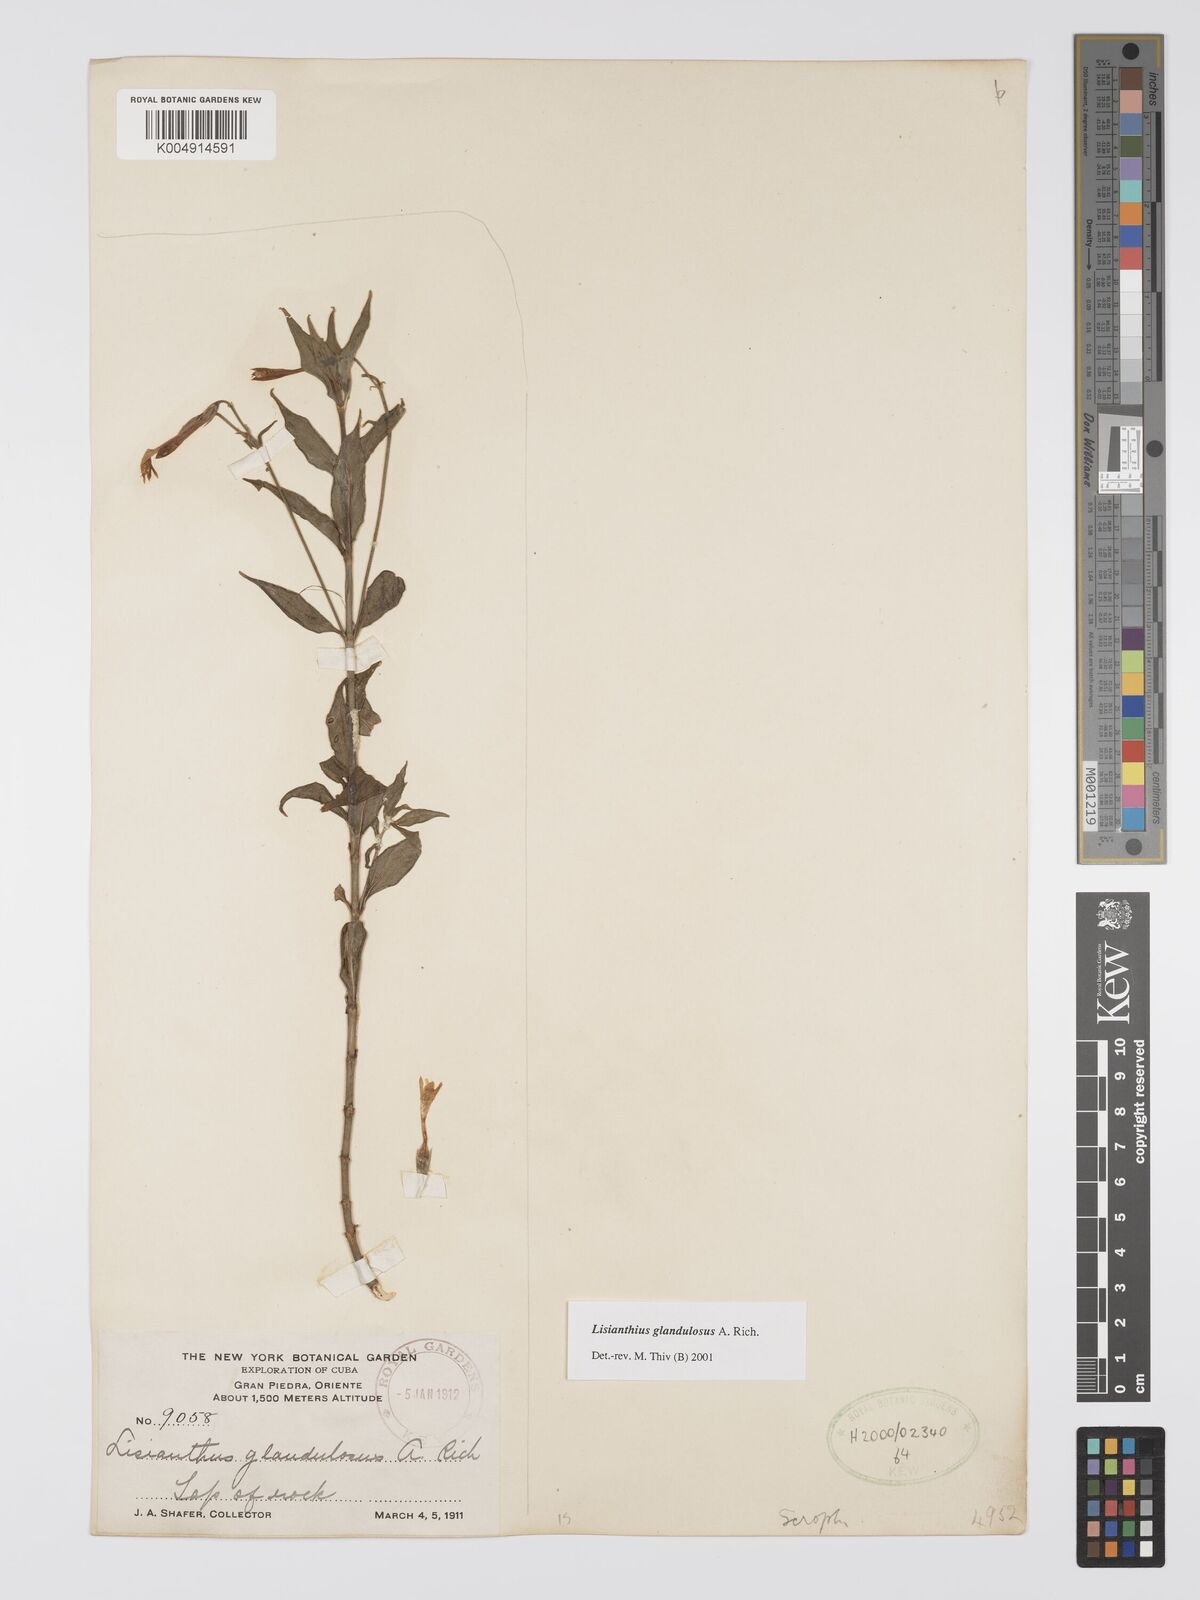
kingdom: Plantae
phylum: Tracheophyta
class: Magnoliopsida
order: Gentianales
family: Gentianaceae
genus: Lisianthus
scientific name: Lisianthus glandulosus
